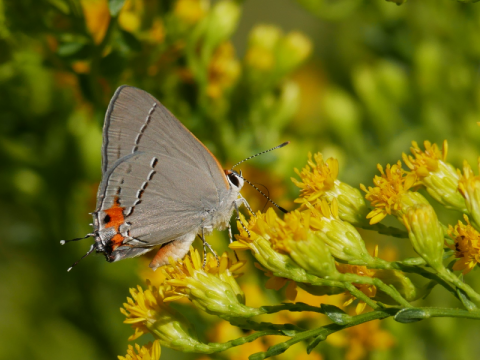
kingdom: Animalia
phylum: Arthropoda
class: Insecta
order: Lepidoptera
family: Lycaenidae
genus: Strymon
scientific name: Strymon melinus
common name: Gray Hairstreak
